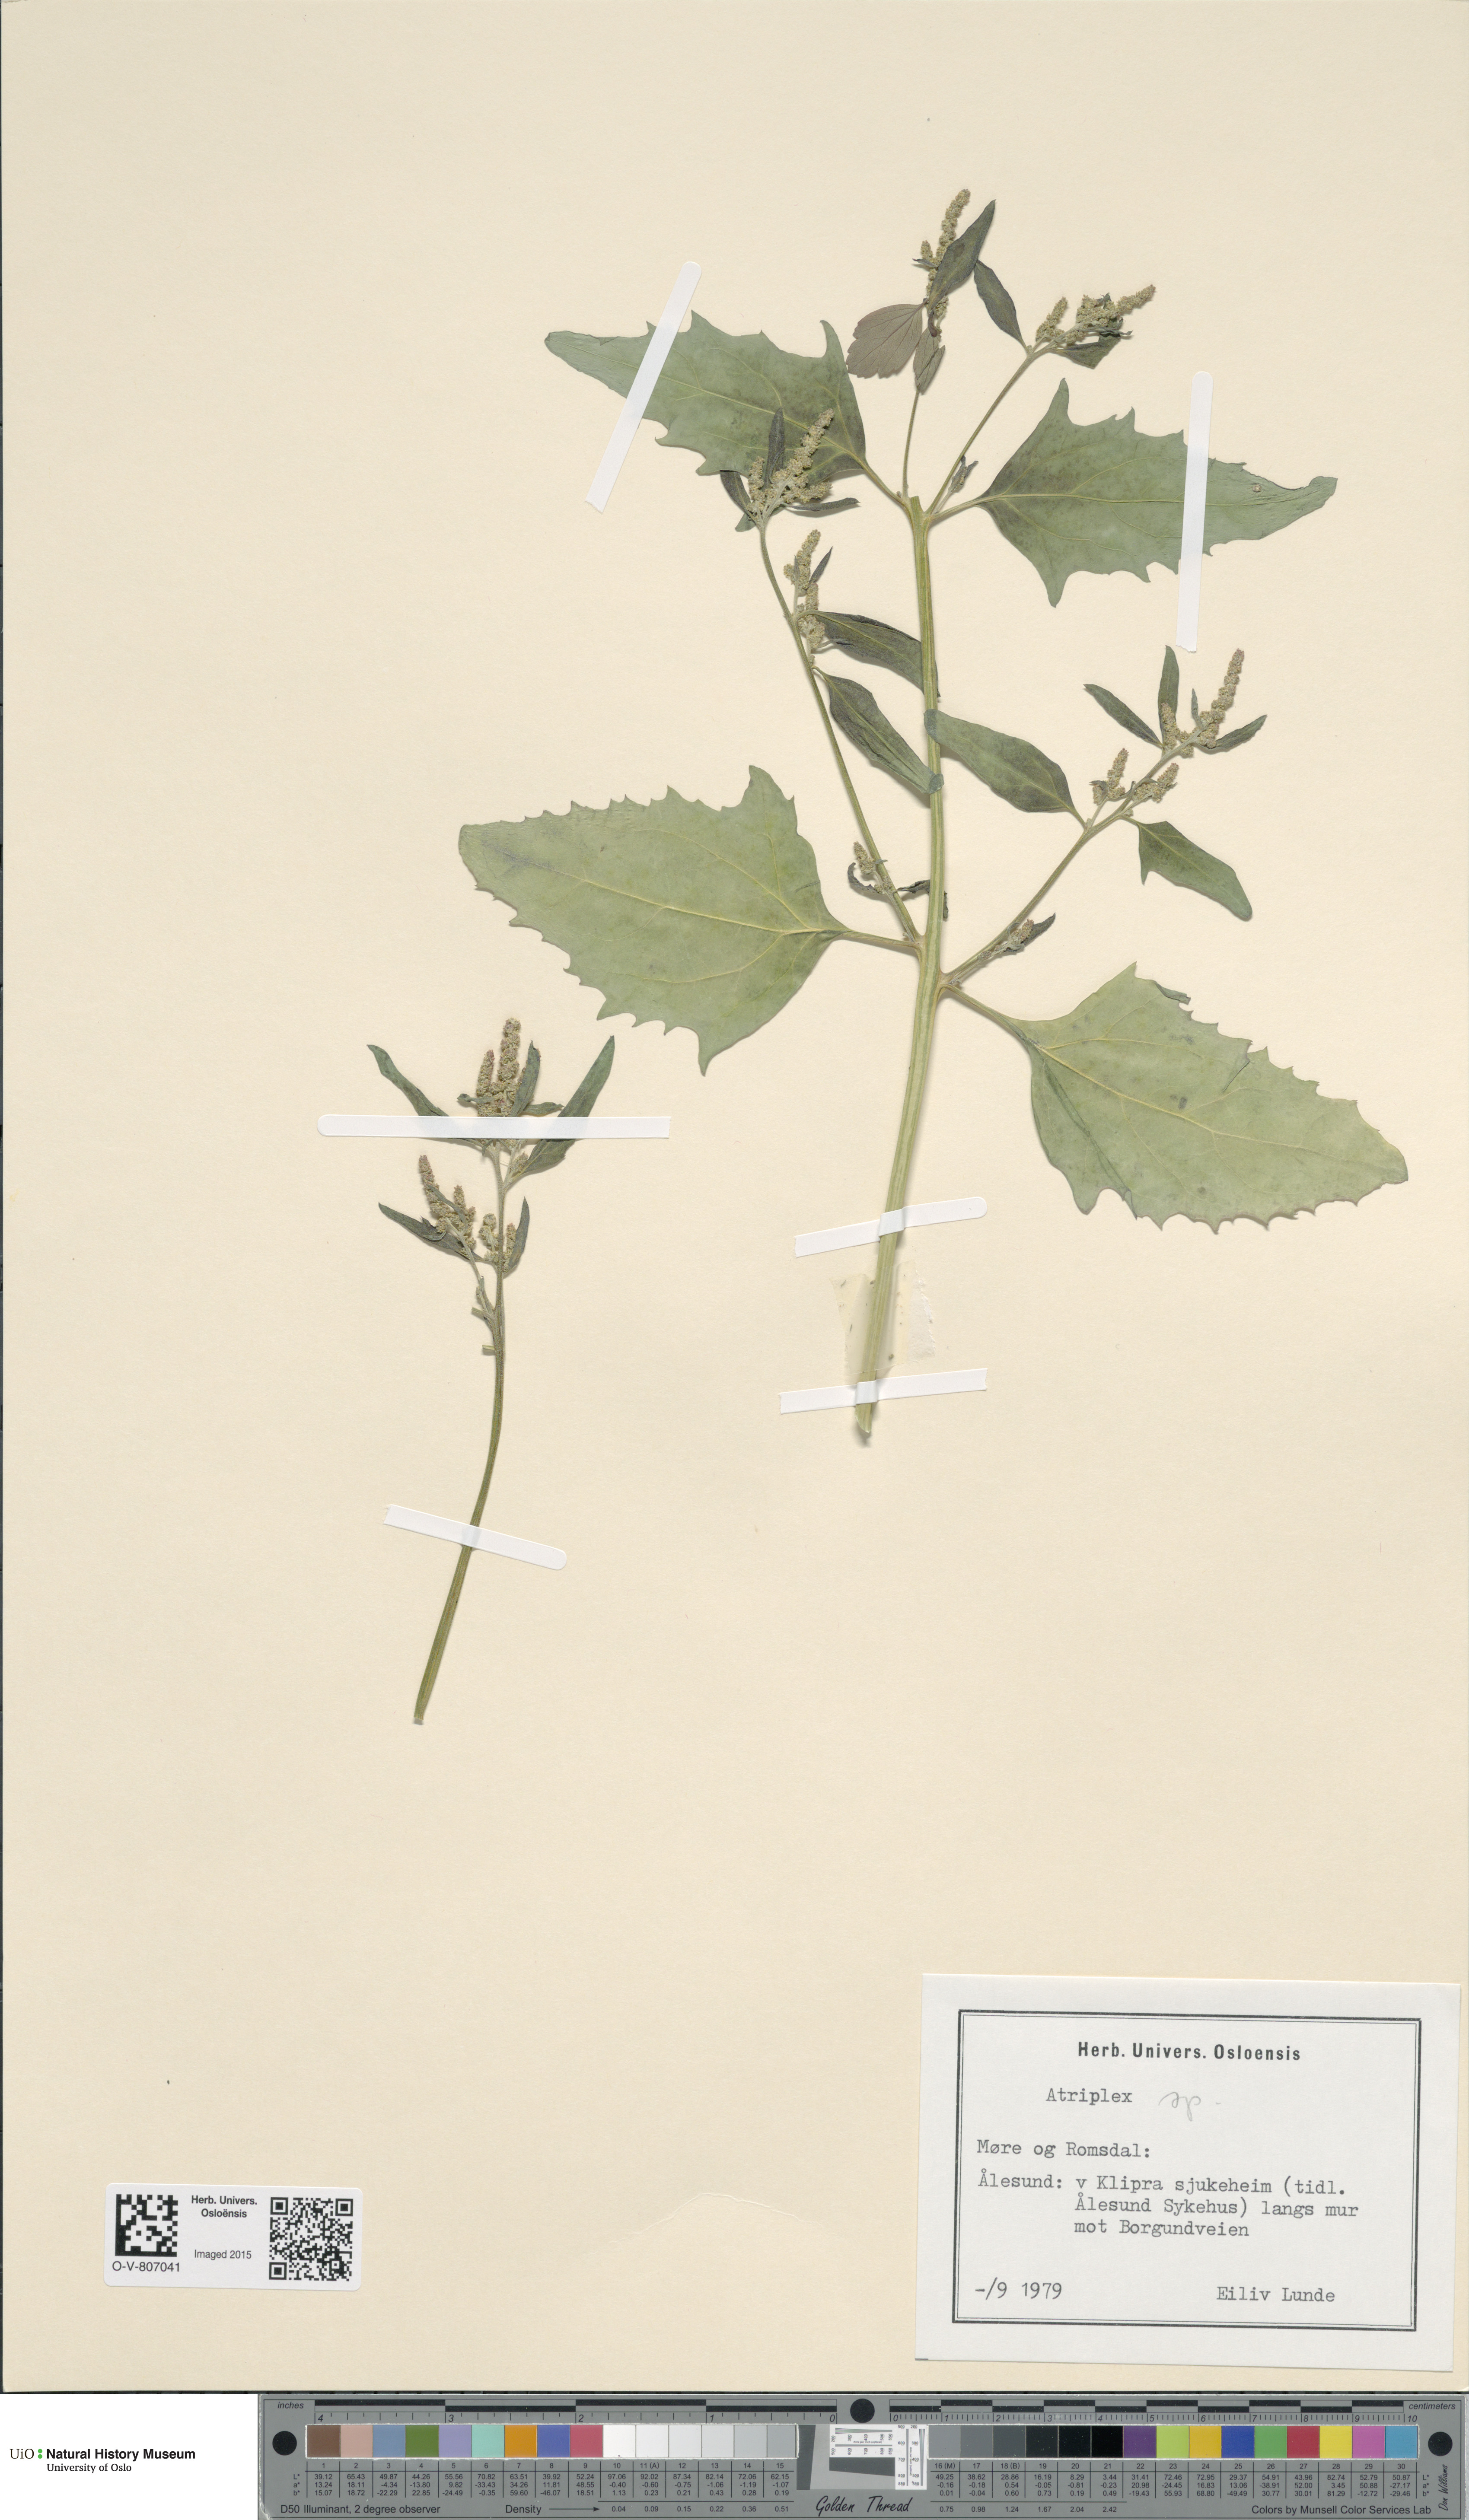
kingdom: Plantae
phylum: Tracheophyta
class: Magnoliopsida
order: Caryophyllales
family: Amaranthaceae
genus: Atriplex
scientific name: Atriplex
